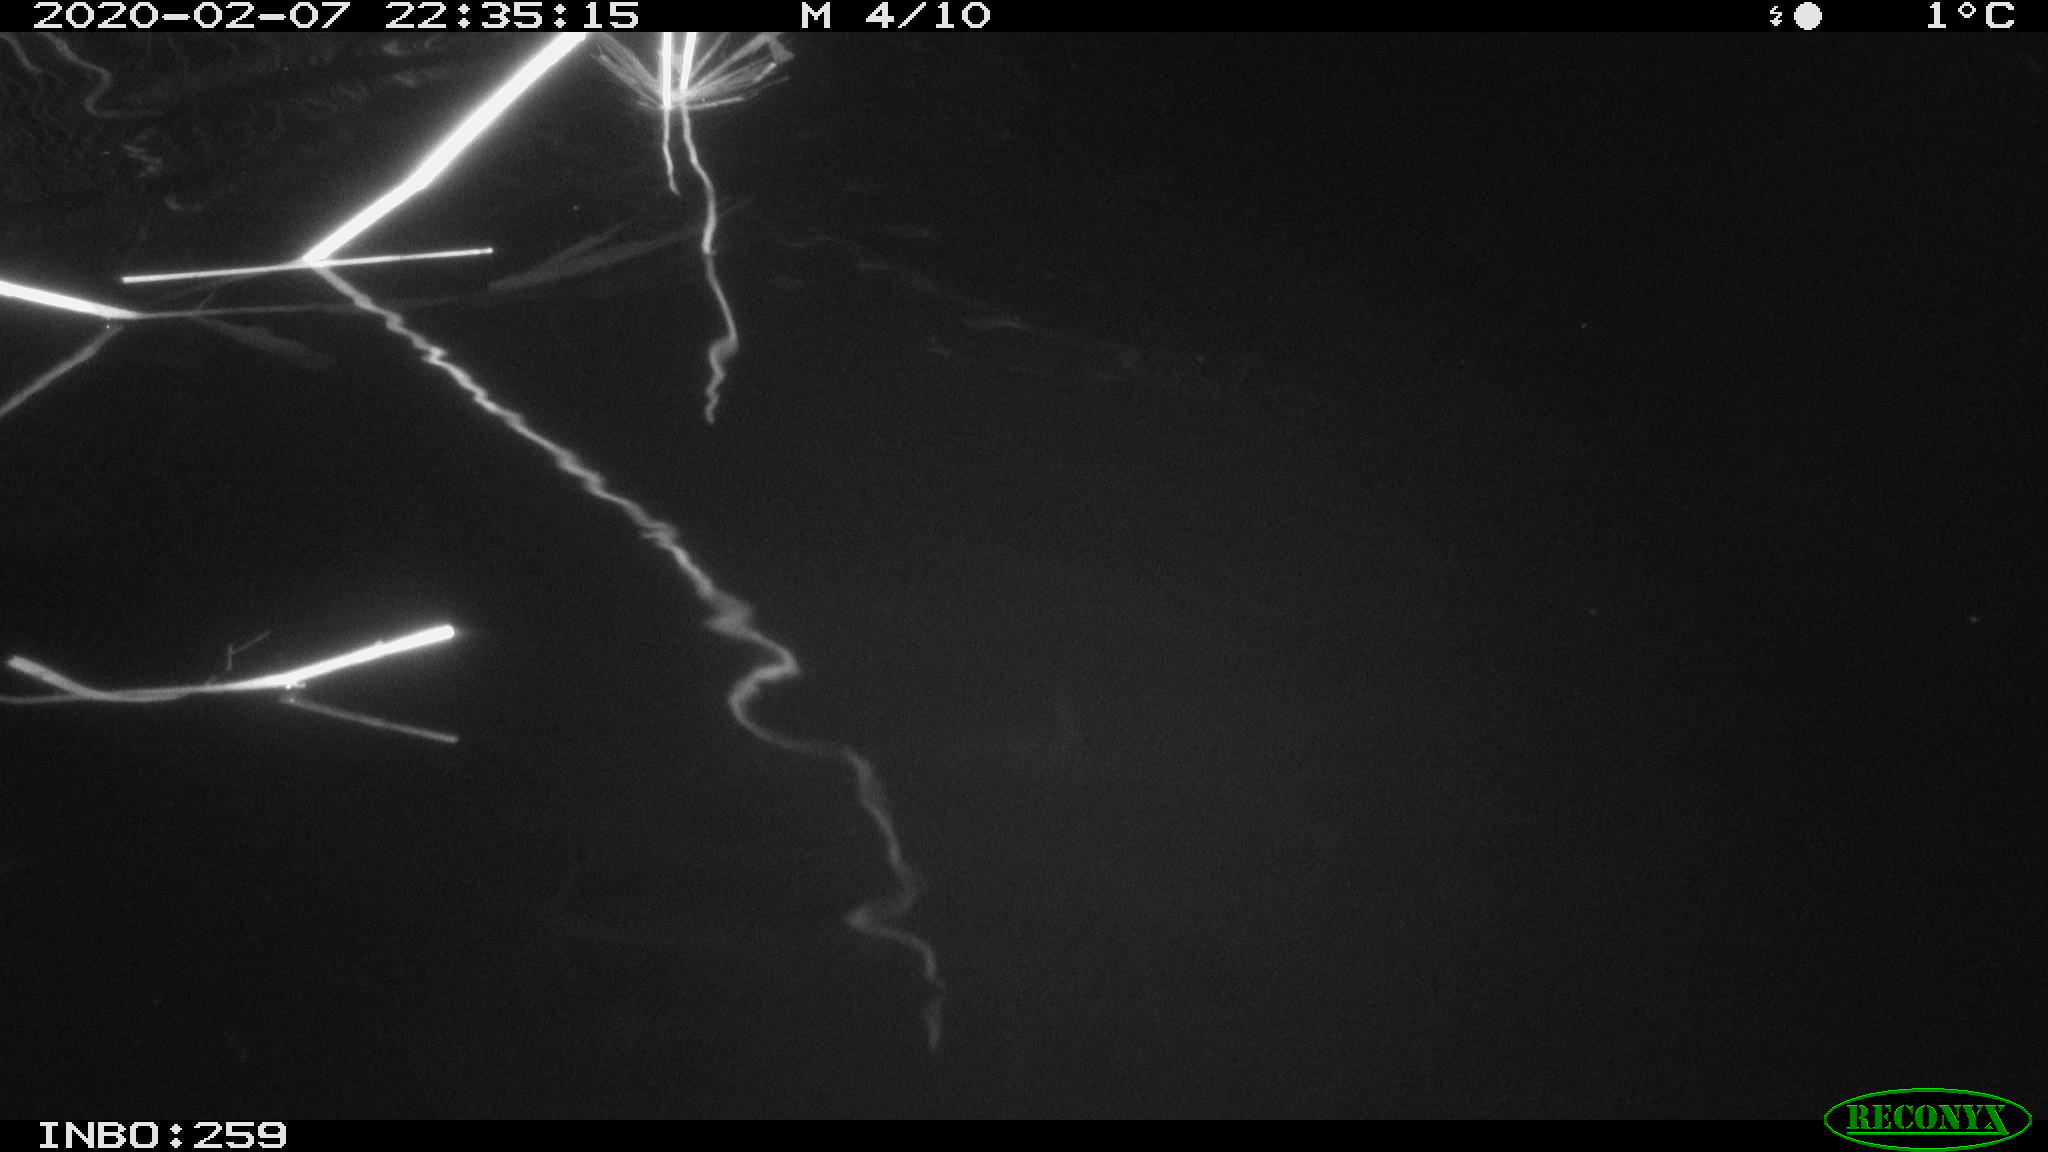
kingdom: Animalia
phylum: Chordata
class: Mammalia
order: Rodentia
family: Cricetidae
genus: Ondatra
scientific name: Ondatra zibethicus
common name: Muskrat
